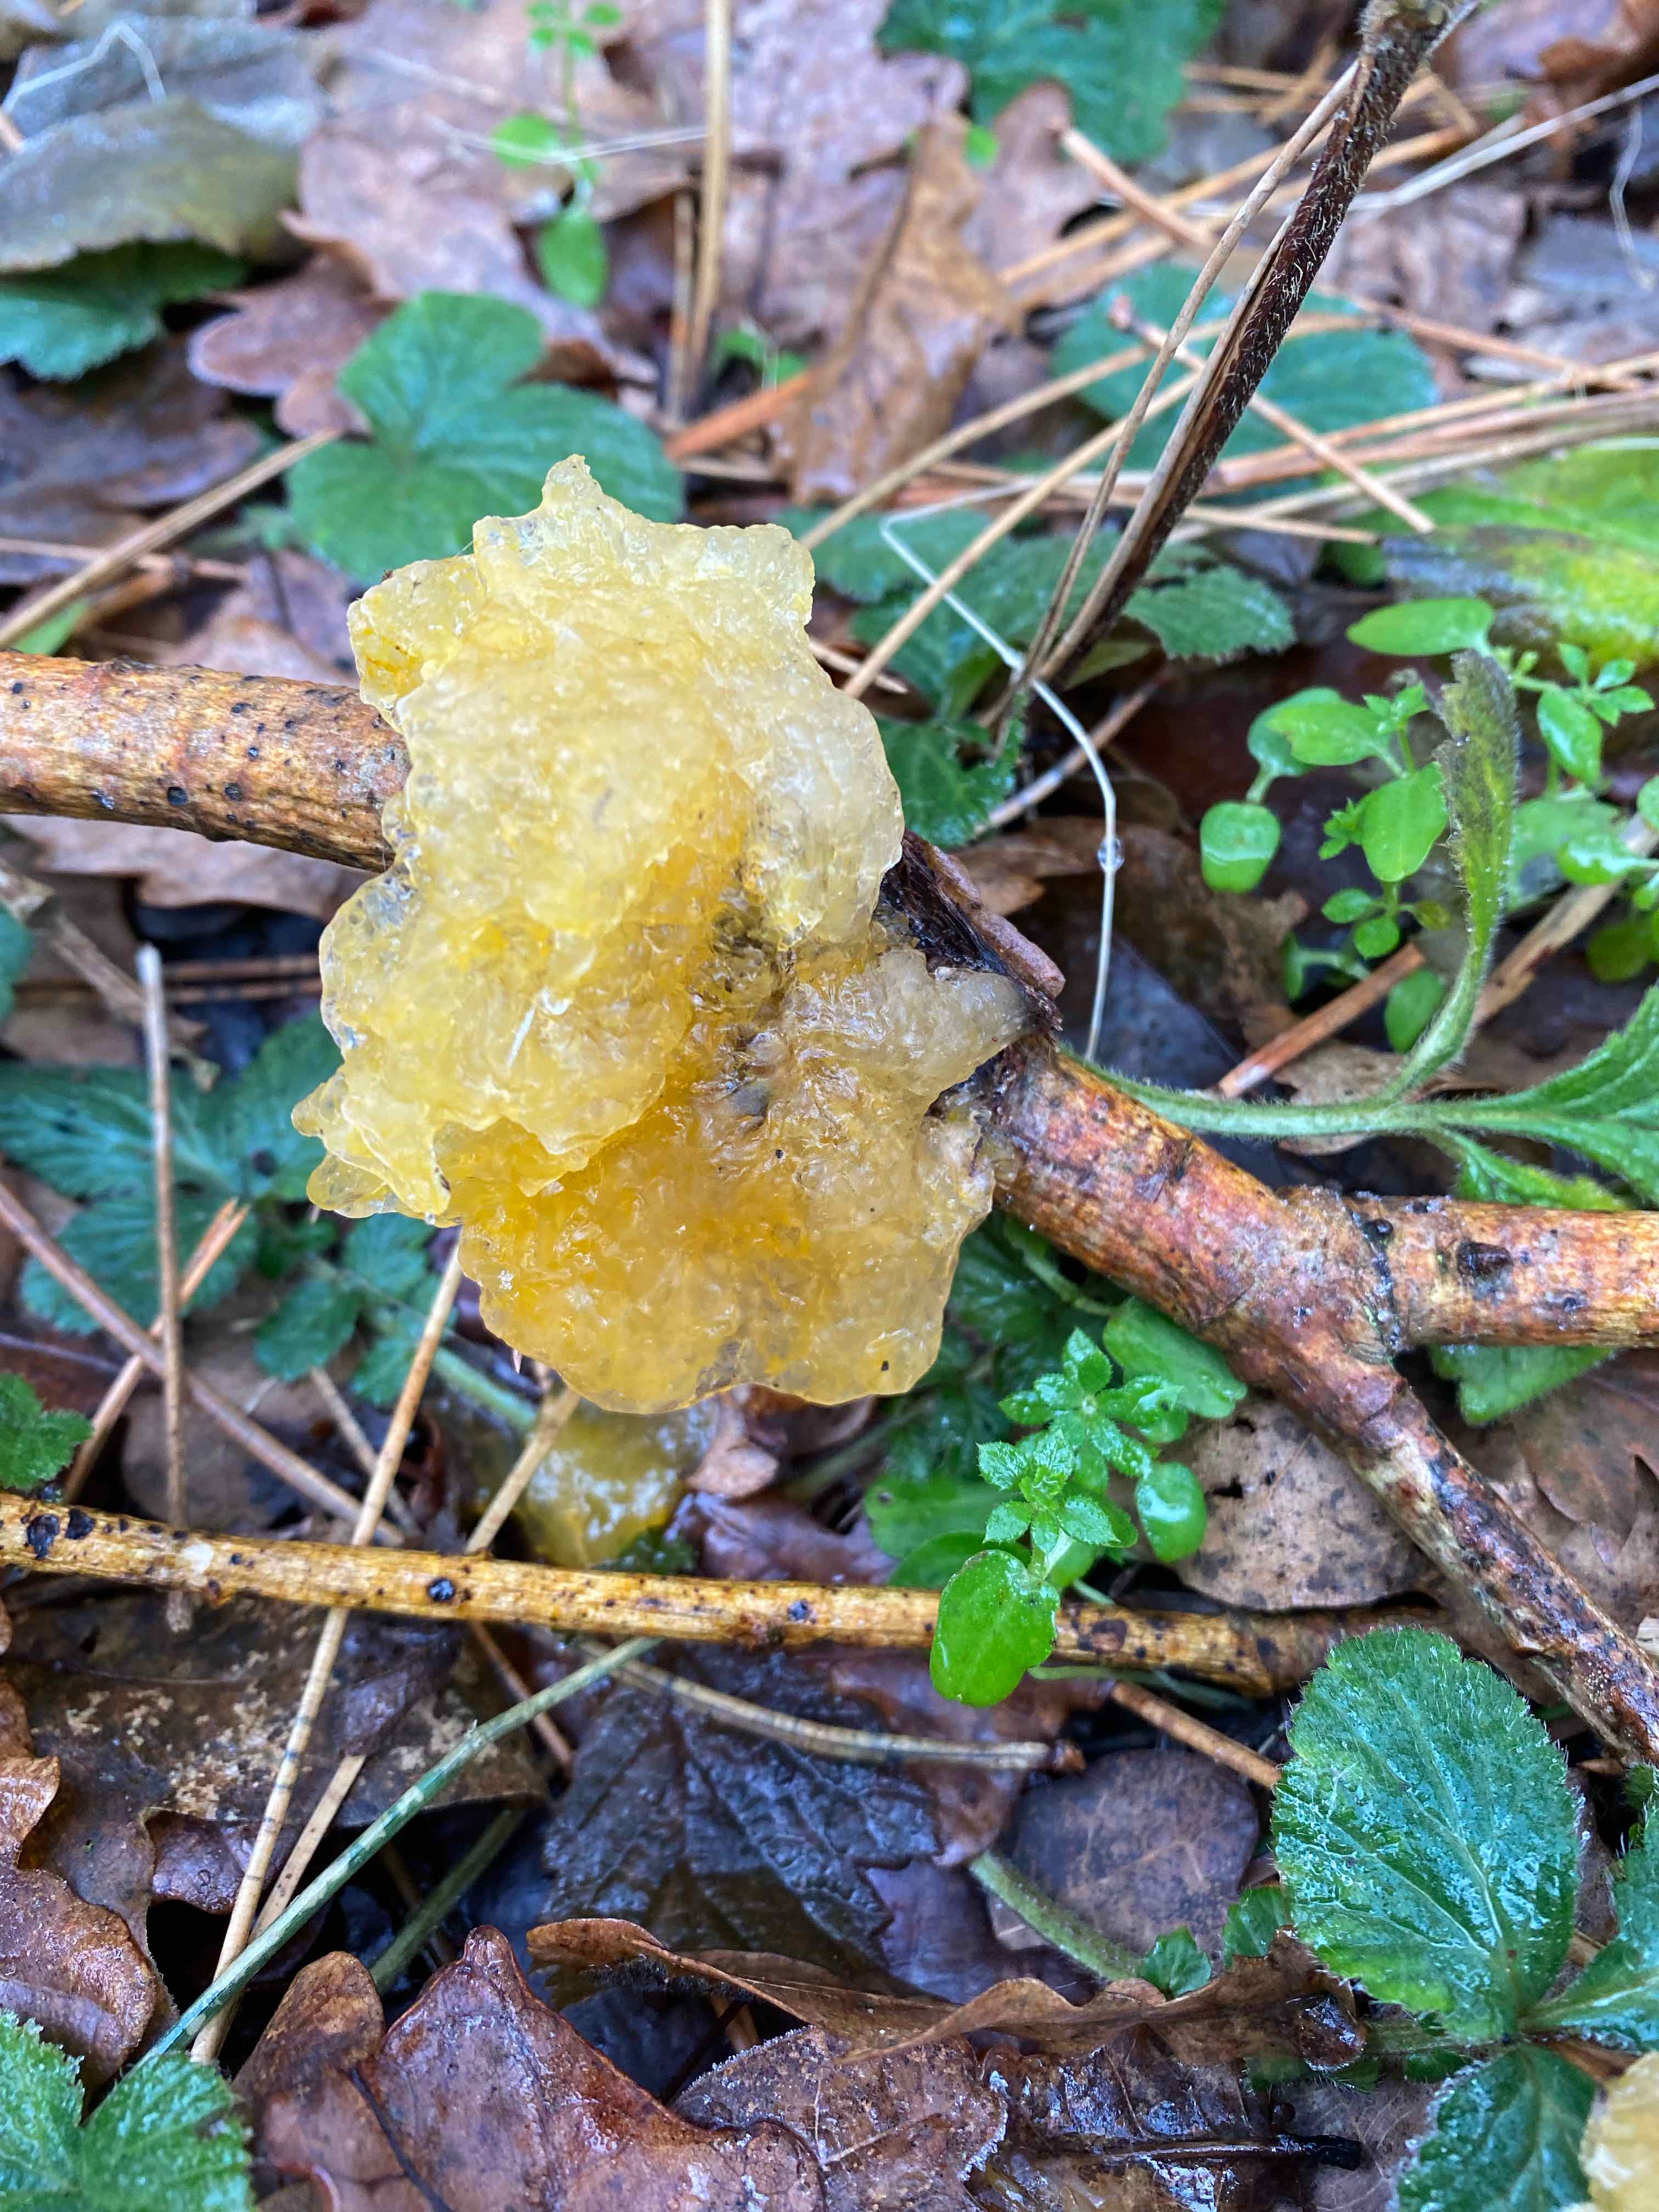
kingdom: Fungi
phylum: Basidiomycota
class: Tremellomycetes
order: Tremellales
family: Tremellaceae
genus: Tremella
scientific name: Tremella mesenterica
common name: gul bævresvamp
